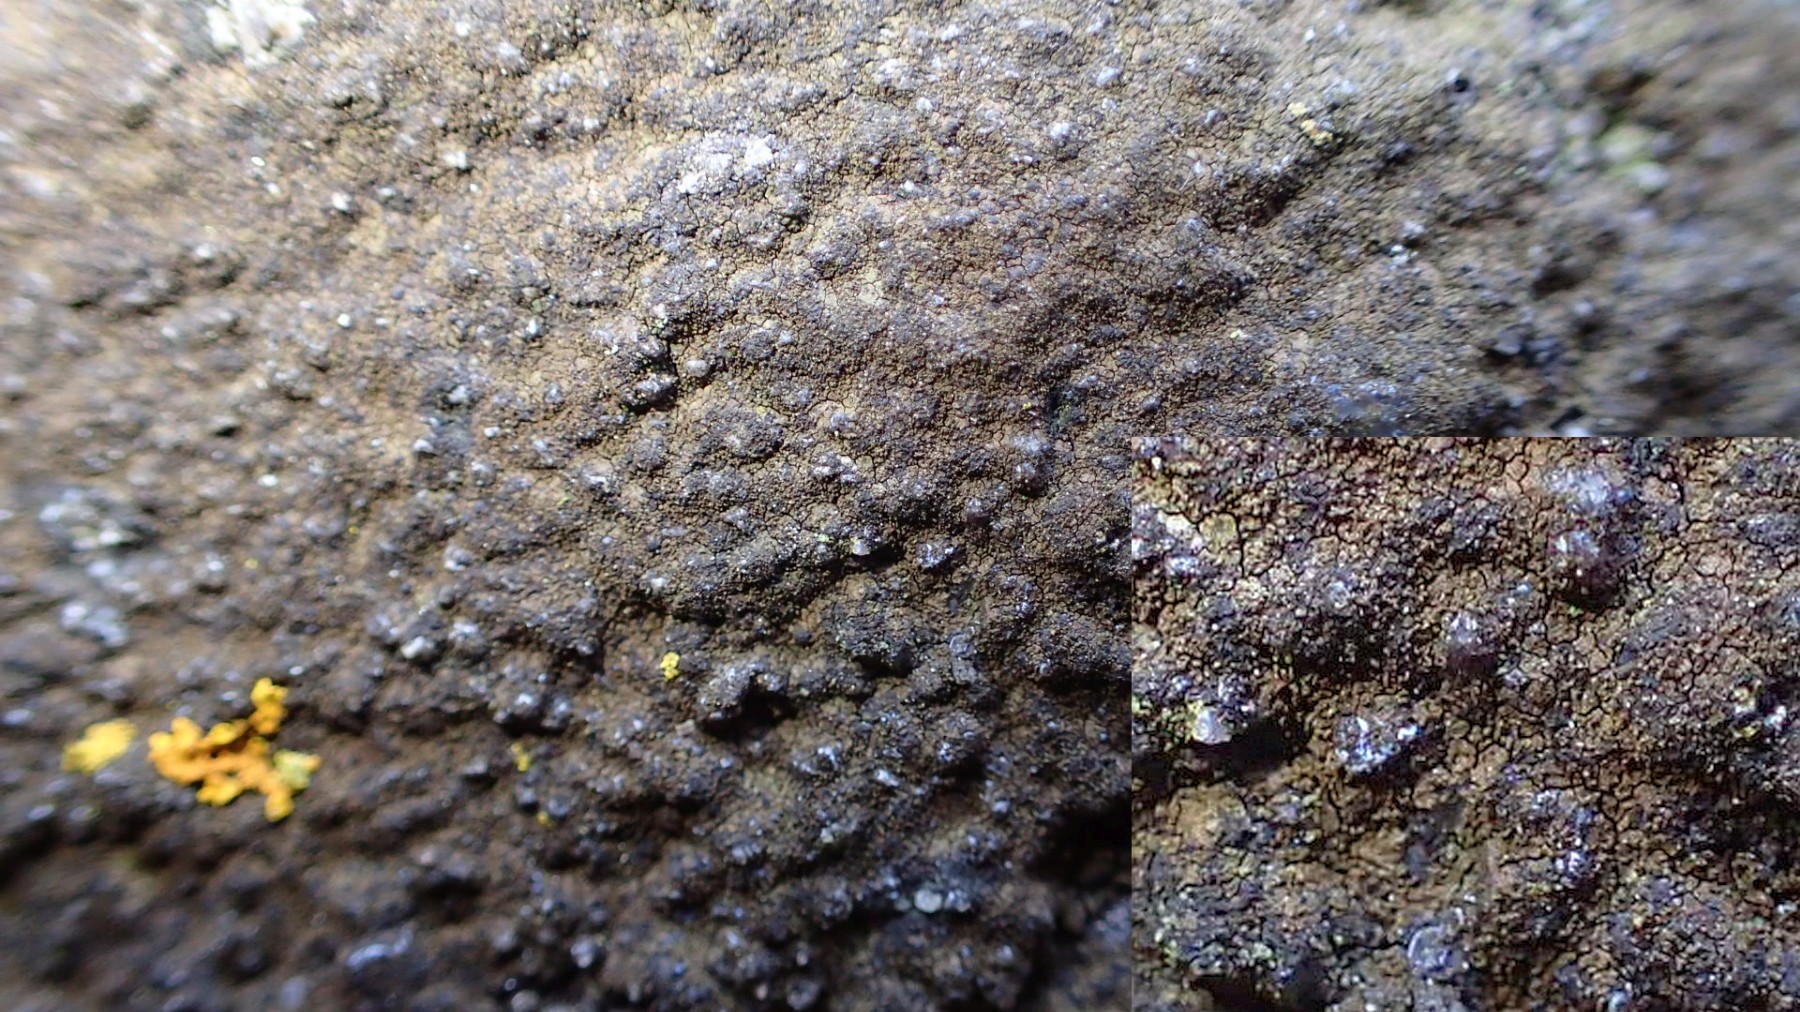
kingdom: Fungi
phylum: Ascomycota
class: Eurotiomycetes
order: Verrucariales
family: Verrucariaceae
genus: Verrucaria
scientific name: Verrucaria
